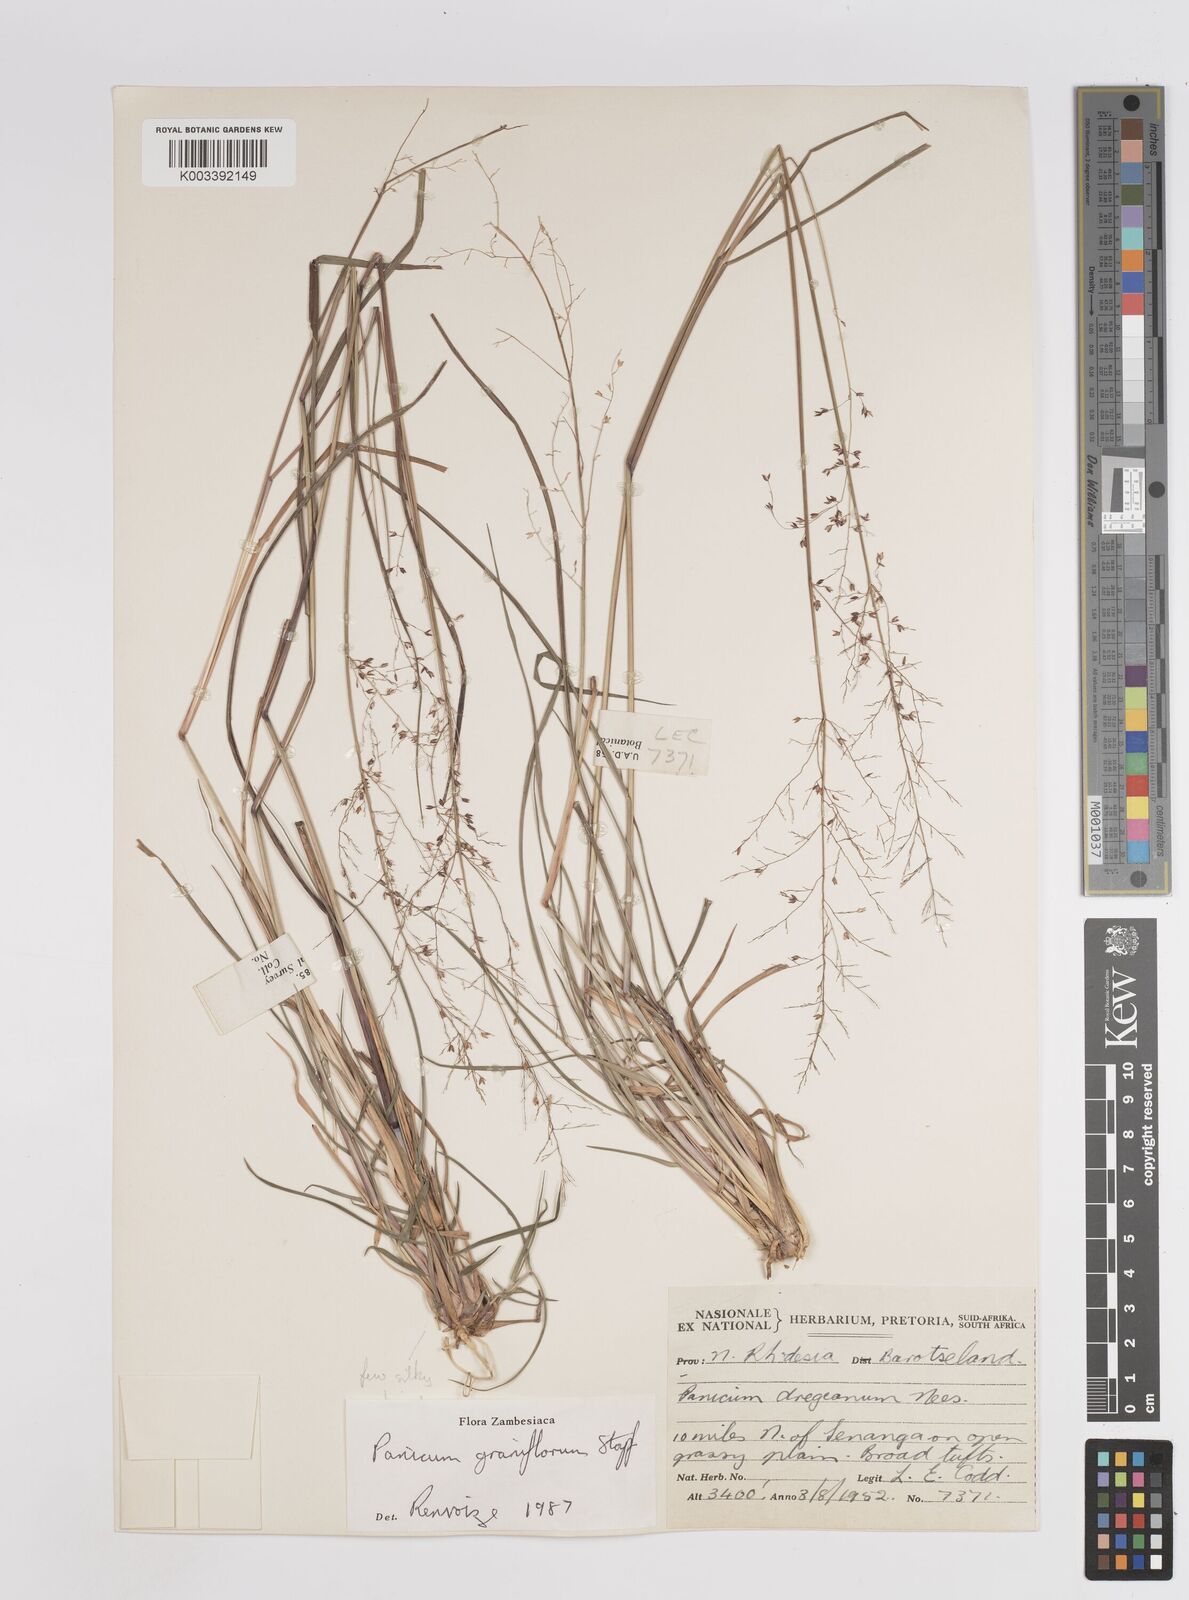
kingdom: Plantae
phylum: Tracheophyta
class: Liliopsida
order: Poales
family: Poaceae
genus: Panicum
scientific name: Panicum graniflorum
